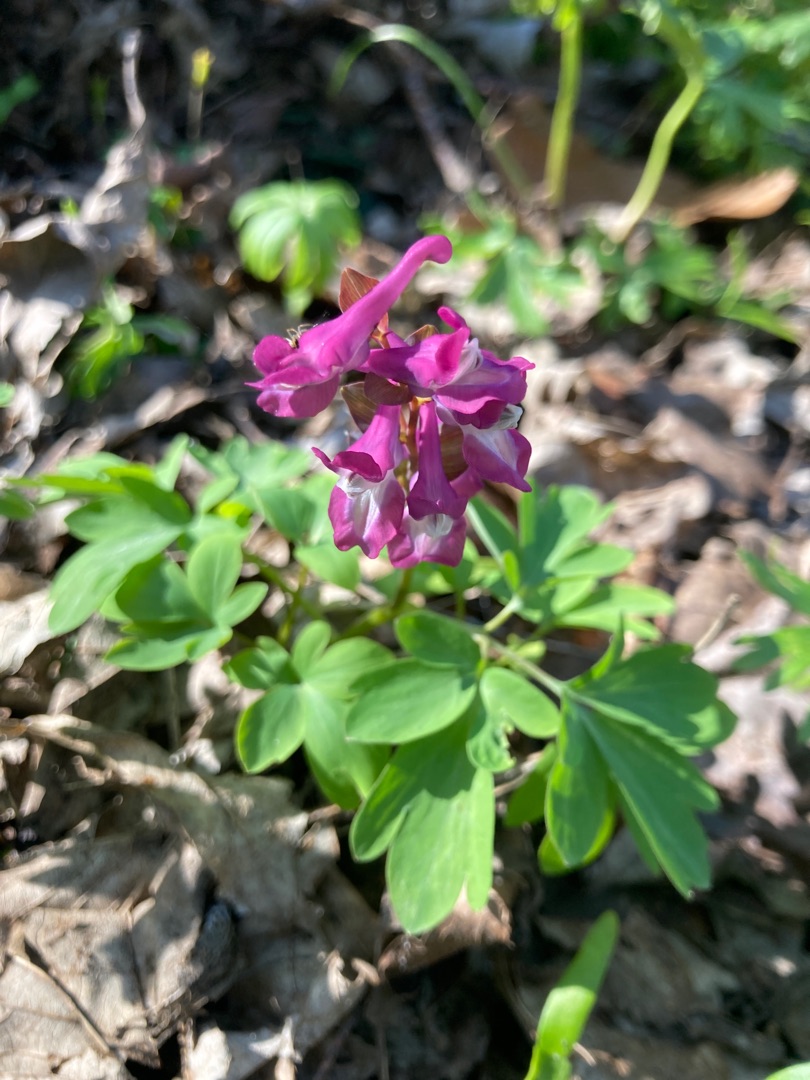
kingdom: Plantae
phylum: Tracheophyta
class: Magnoliopsida
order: Ranunculales
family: Papaveraceae
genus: Corydalis
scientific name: Corydalis cava
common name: Hulrodet lærkespore
